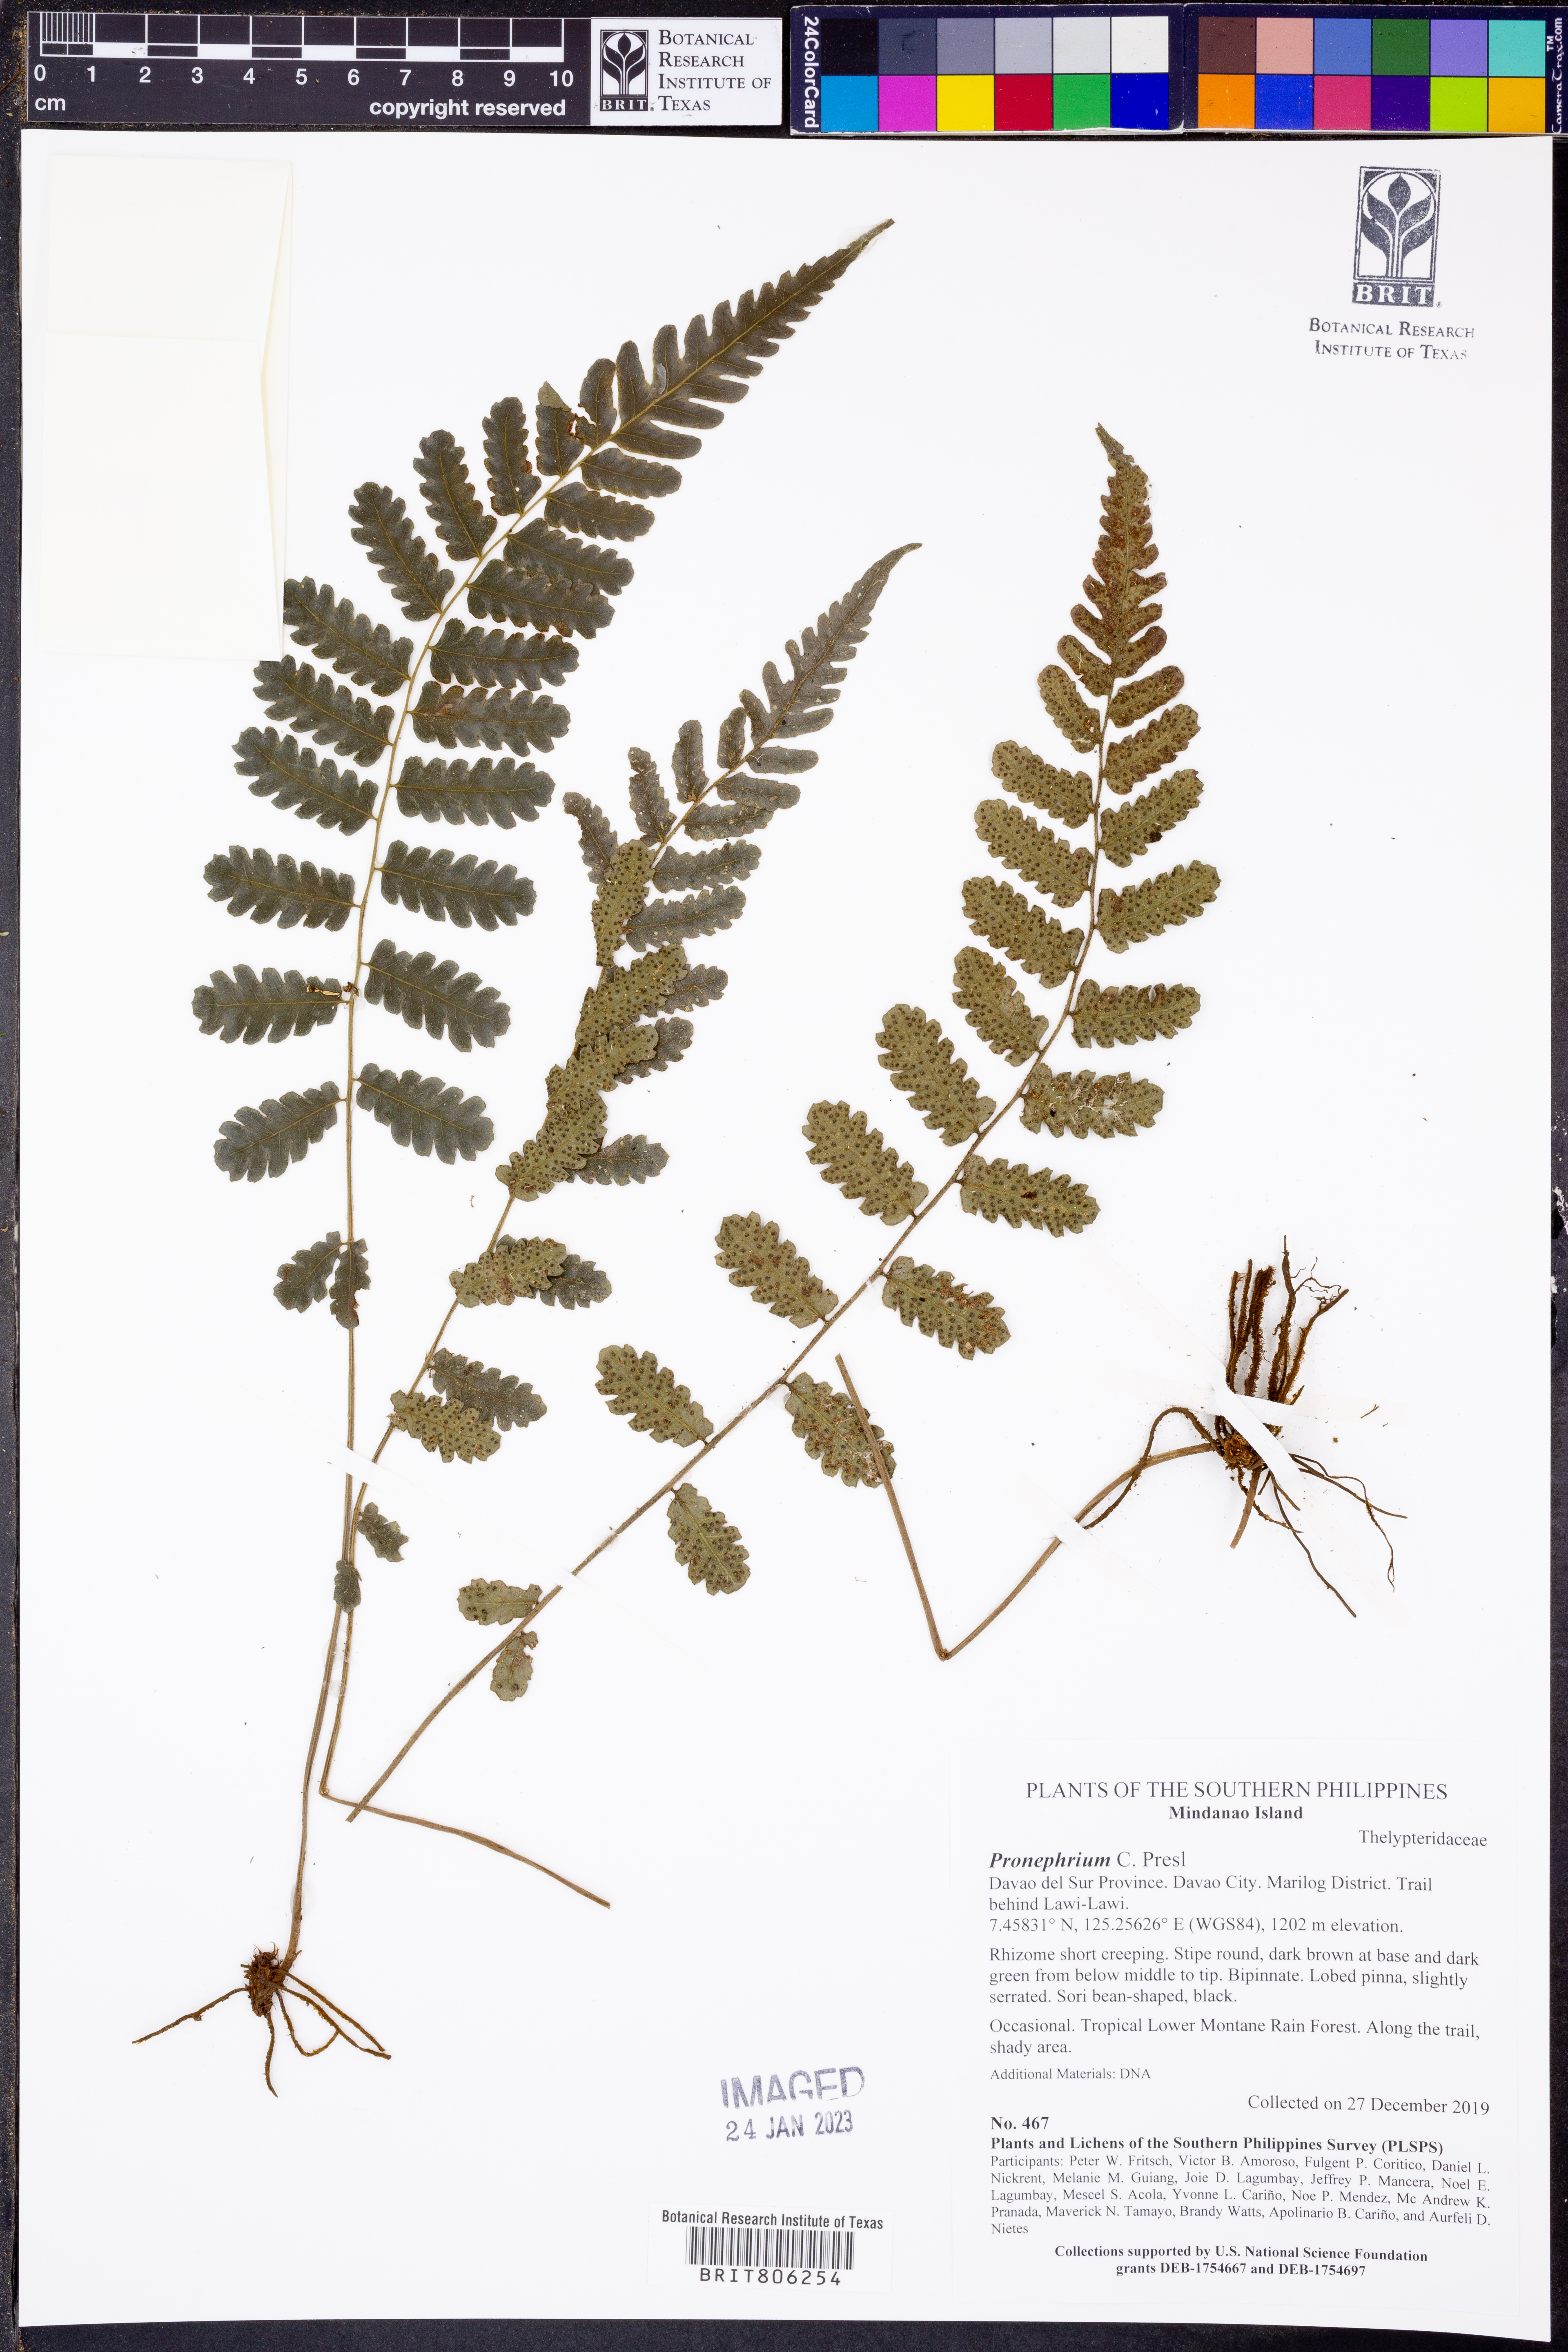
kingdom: Plantae
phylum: Tracheophyta
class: Polypodiopsida
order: Polypodiales
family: Thelypteridaceae
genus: Pronephrium
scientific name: Pronephrium
